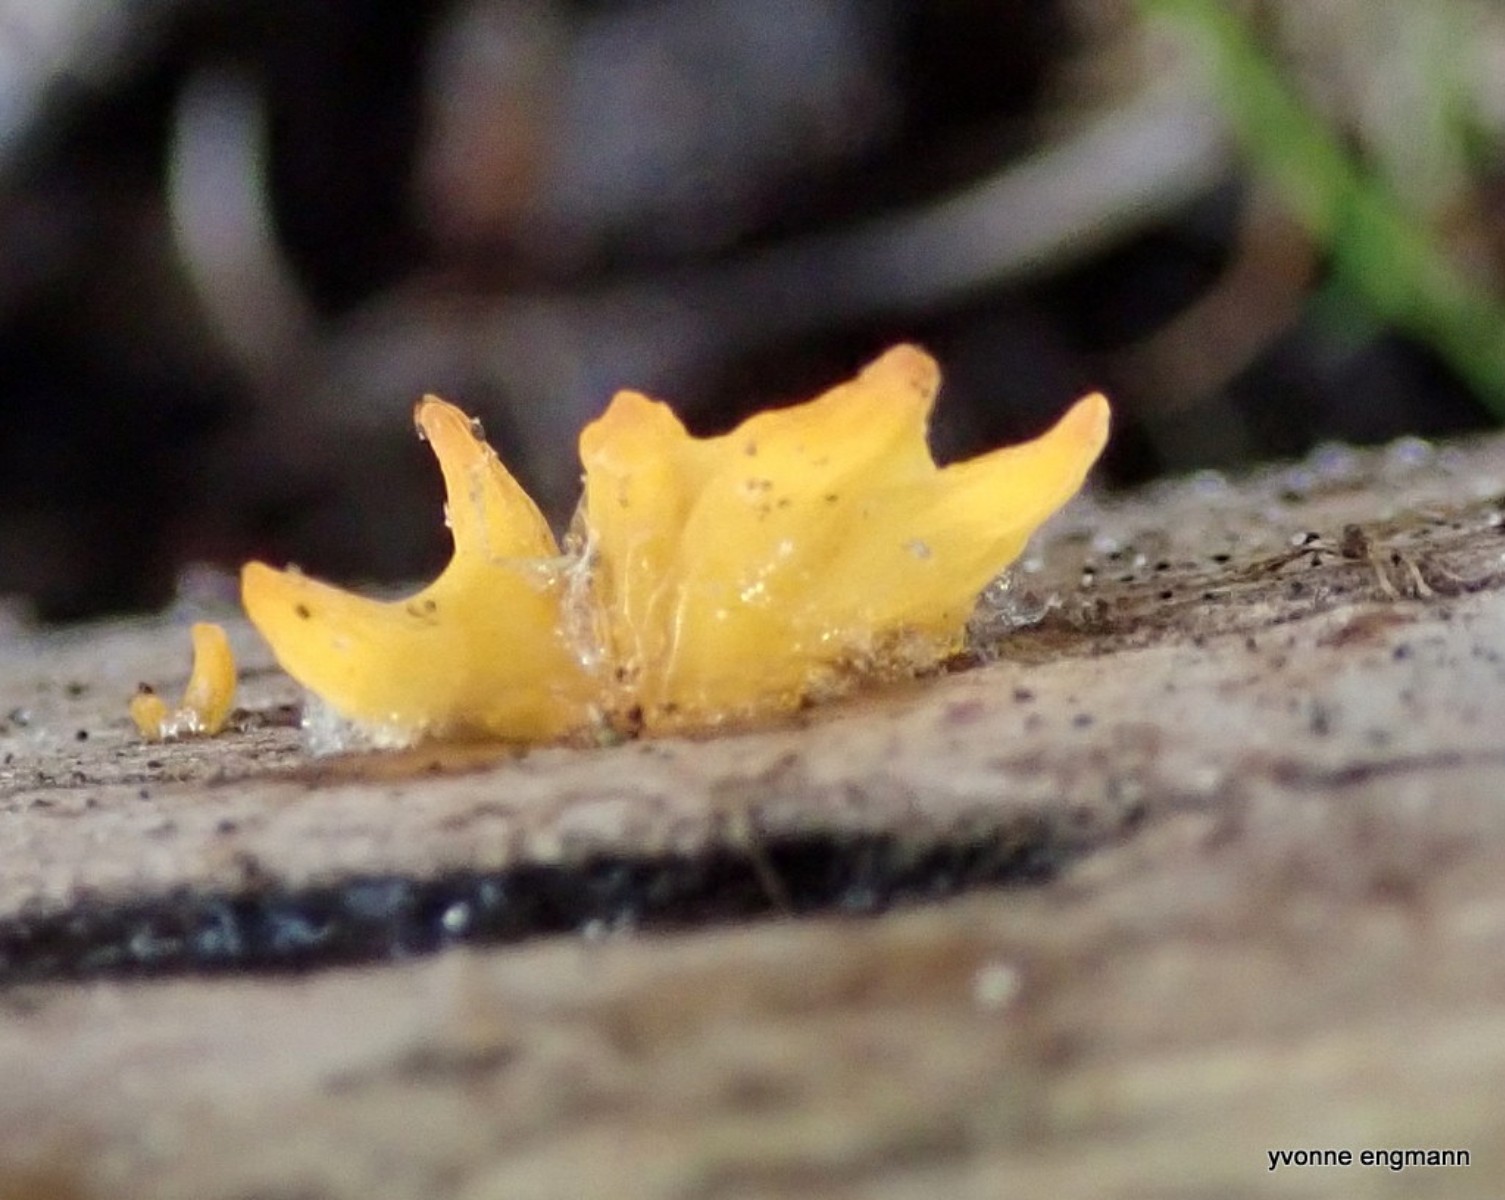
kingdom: Fungi
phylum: Basidiomycota
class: Dacrymycetes
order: Dacrymycetales
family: Dacrymycetaceae
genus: Calocera
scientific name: Calocera cornea
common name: liden guldgaffel
